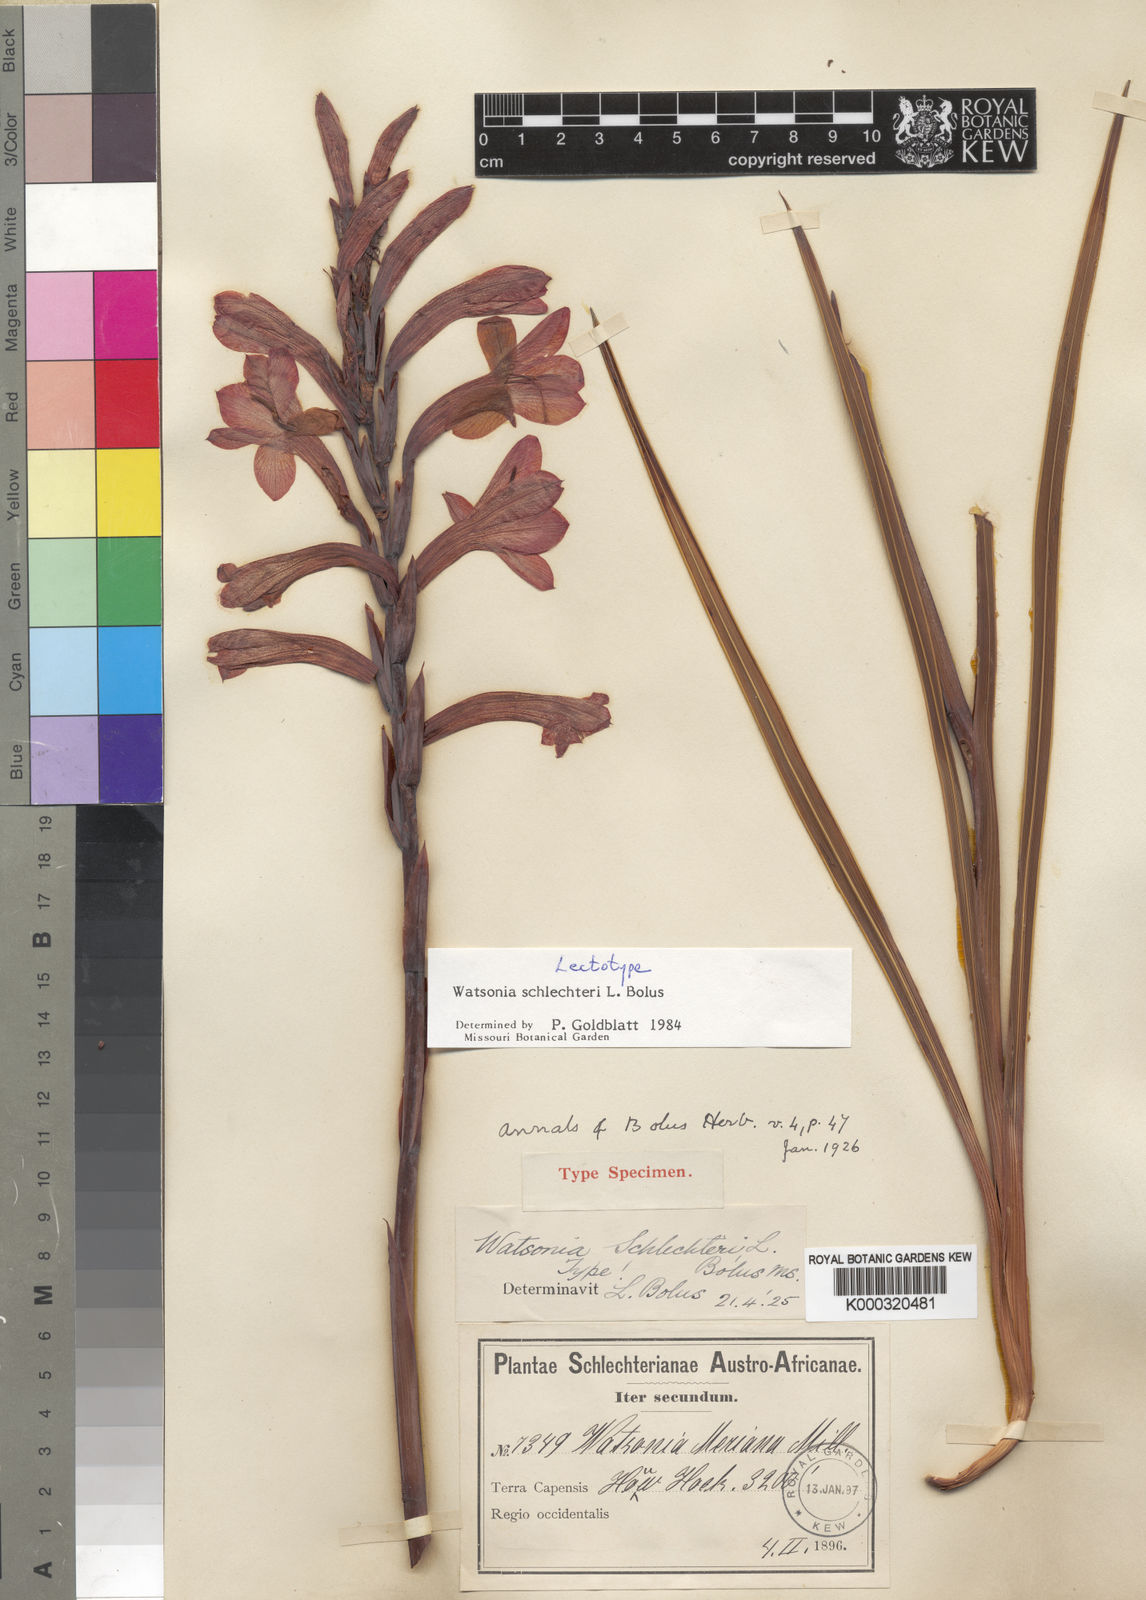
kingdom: Plantae
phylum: Tracheophyta
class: Liliopsida
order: Asparagales
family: Iridaceae
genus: Watsonia
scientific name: Watsonia schlechteri
